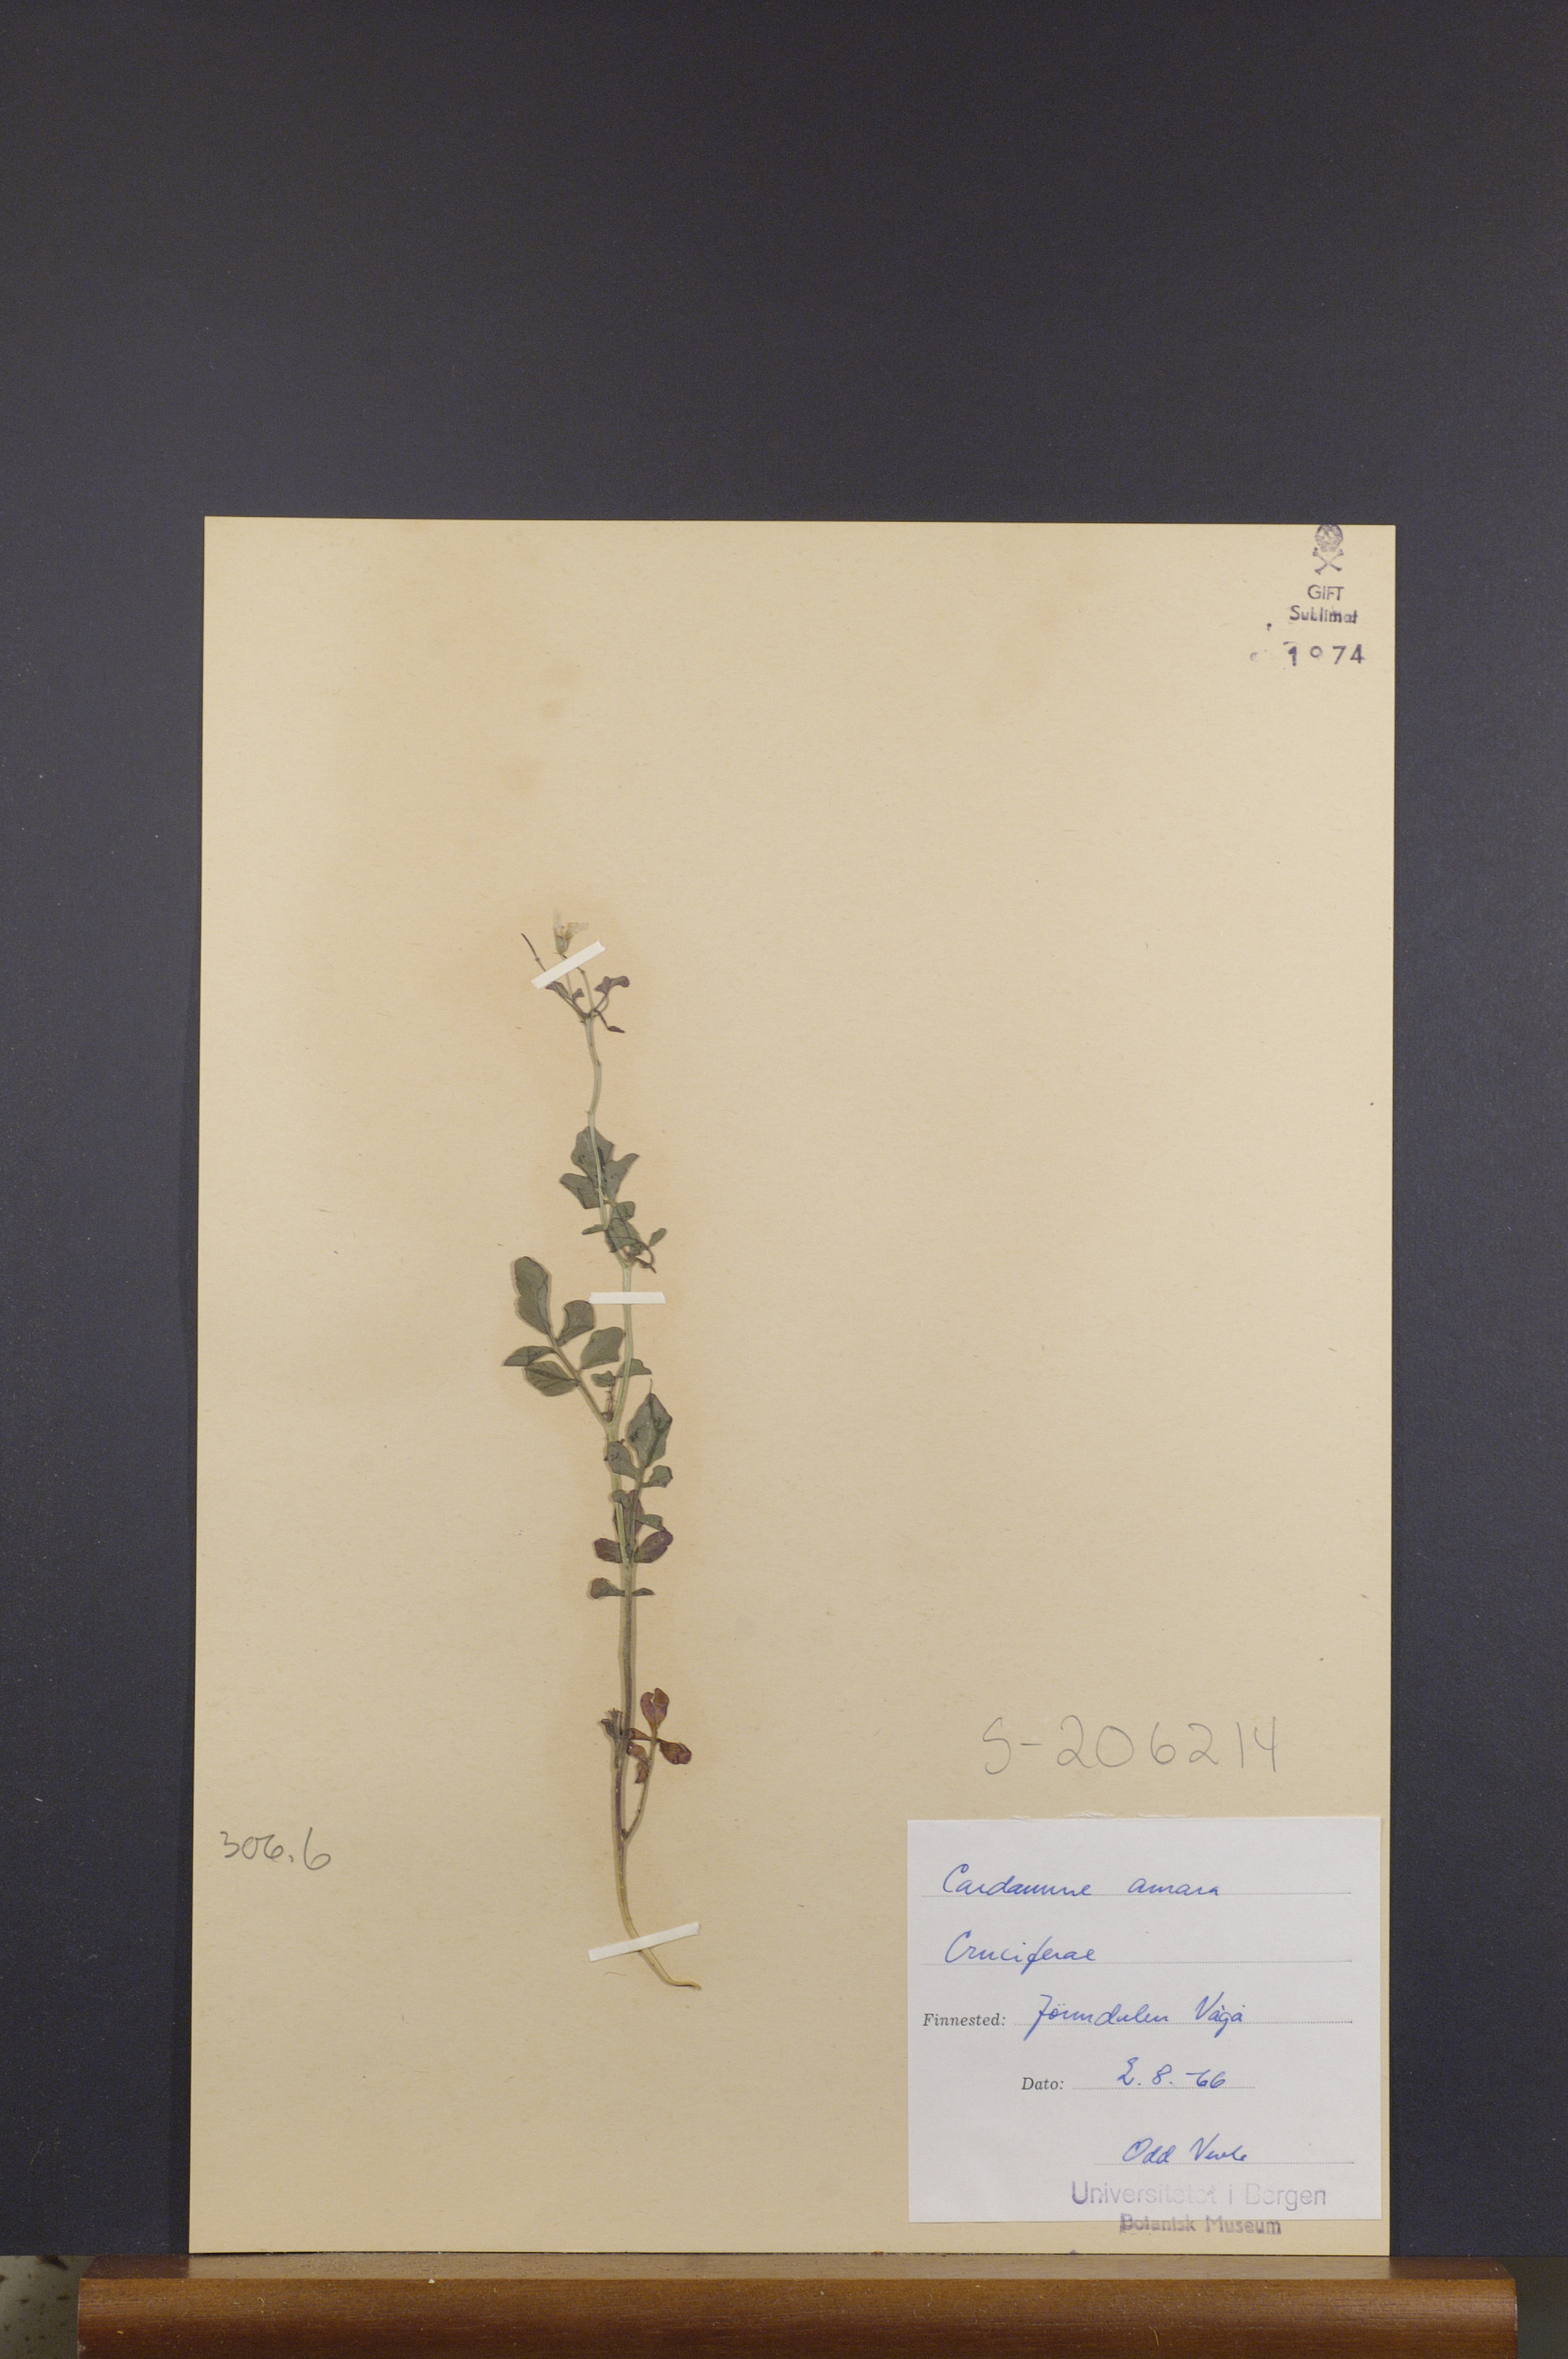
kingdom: Plantae
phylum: Tracheophyta
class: Magnoliopsida
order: Brassicales
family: Brassicaceae
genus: Cardamine
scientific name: Cardamine amara
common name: Large bitter-cress
